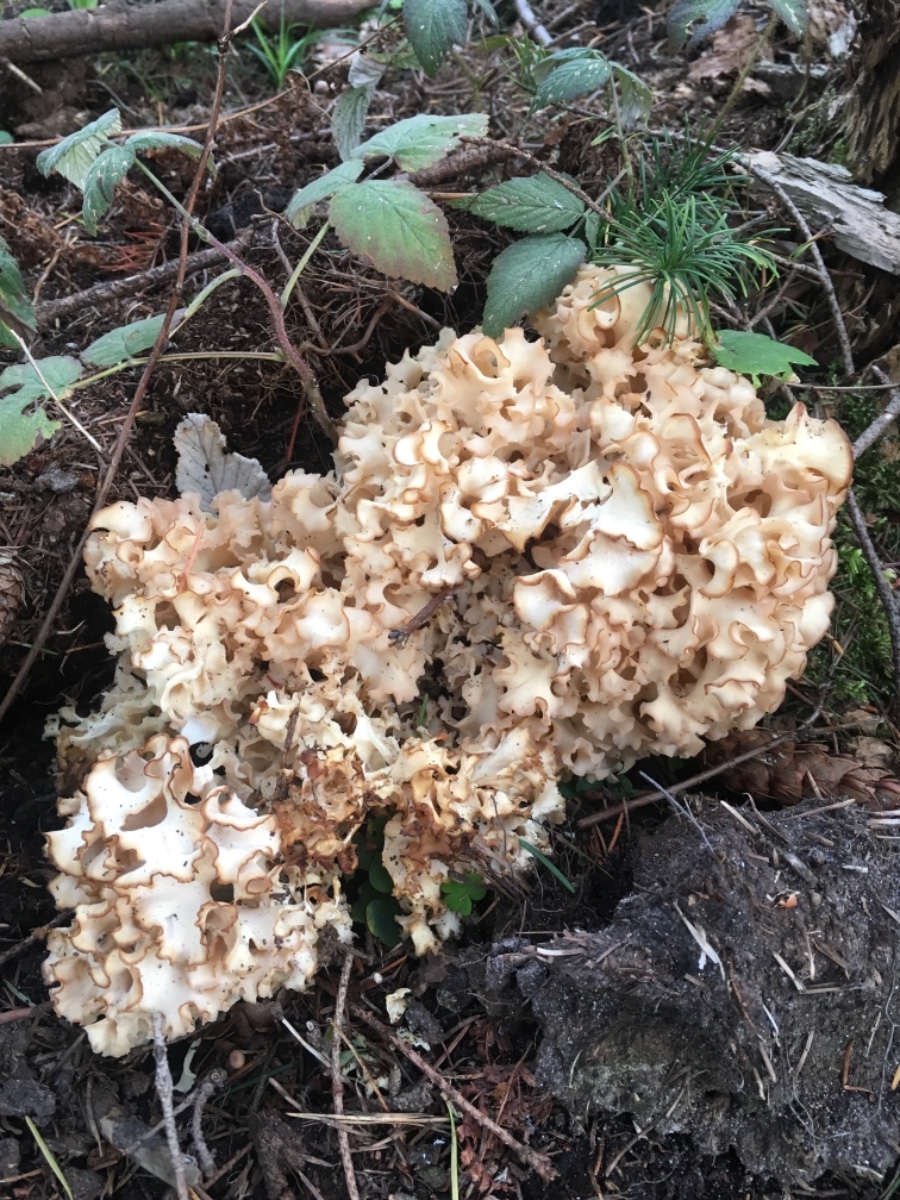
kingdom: Fungi
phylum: Basidiomycota
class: Agaricomycetes
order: Polyporales
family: Sparassidaceae
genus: Sparassis
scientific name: Sparassis crispa
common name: kruset blomkålssvamp
